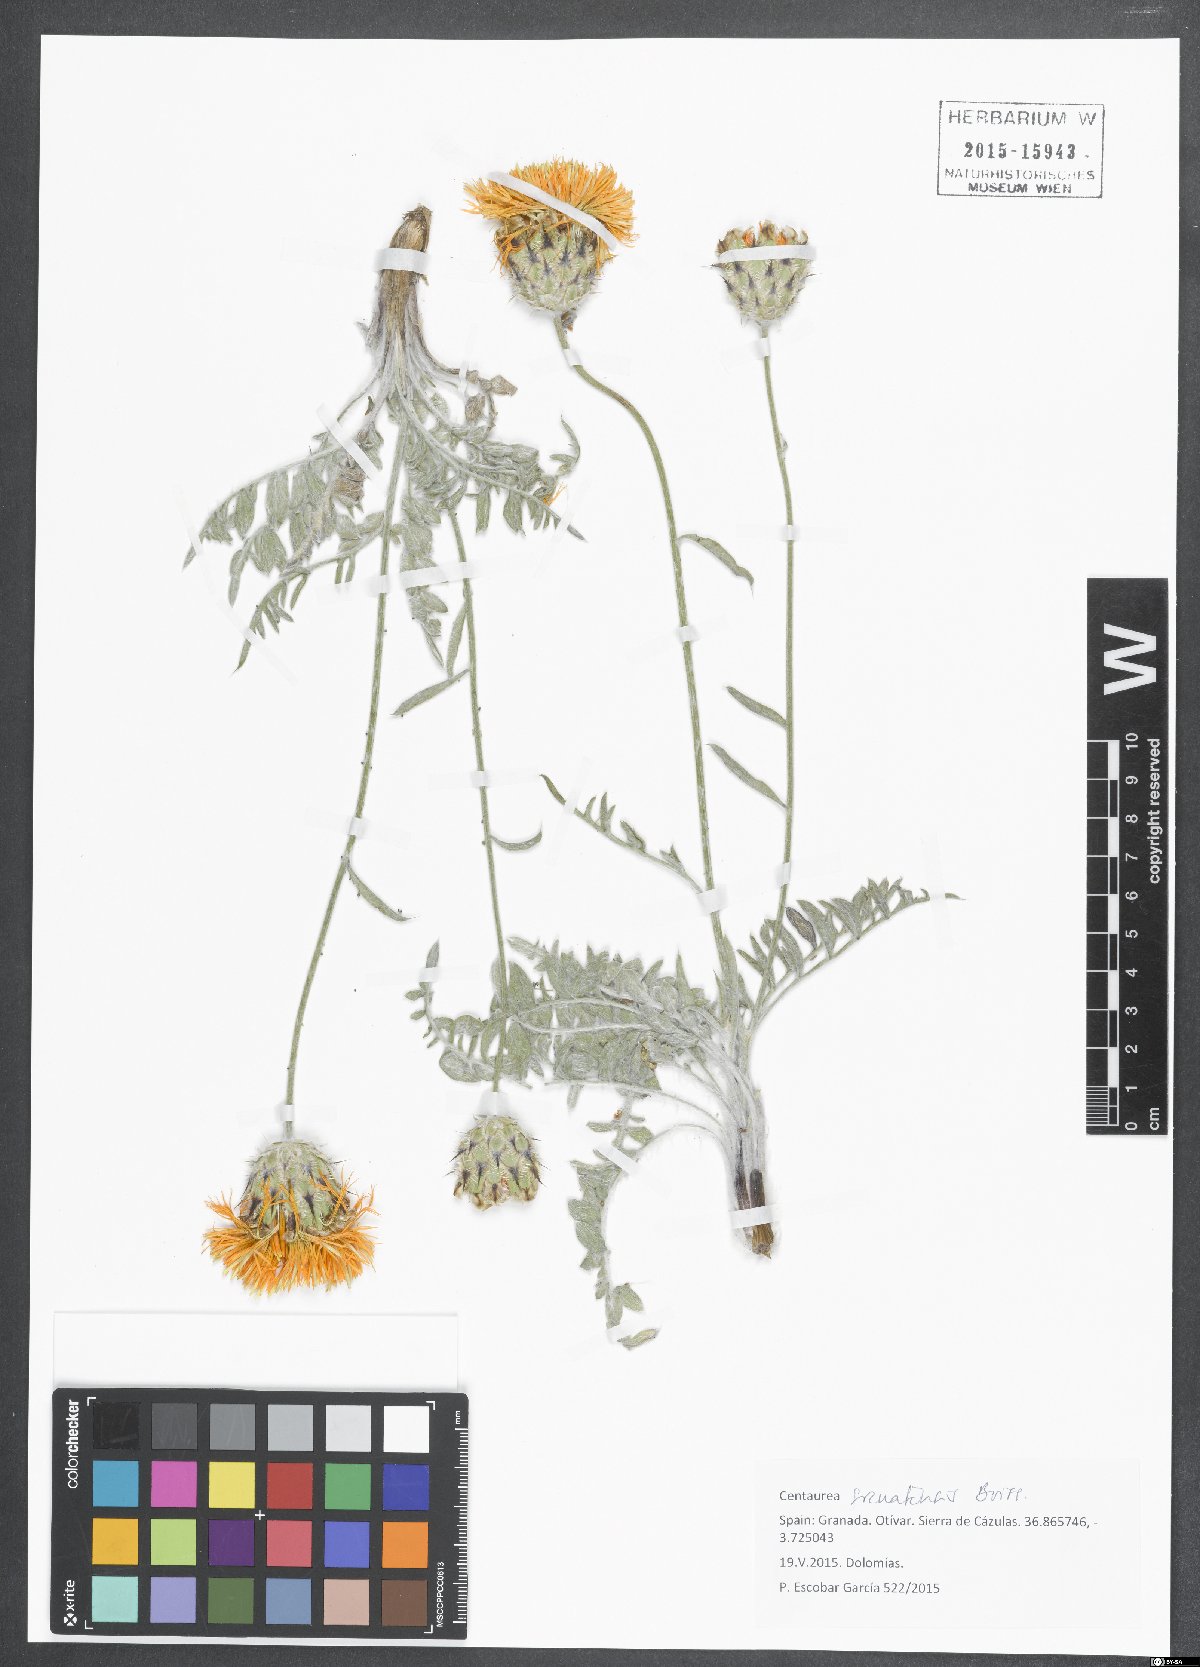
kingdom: Plantae
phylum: Tracheophyta
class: Magnoliopsida
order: Asterales
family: Asteraceae
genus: Centaurea
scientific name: Centaurea granatensis
